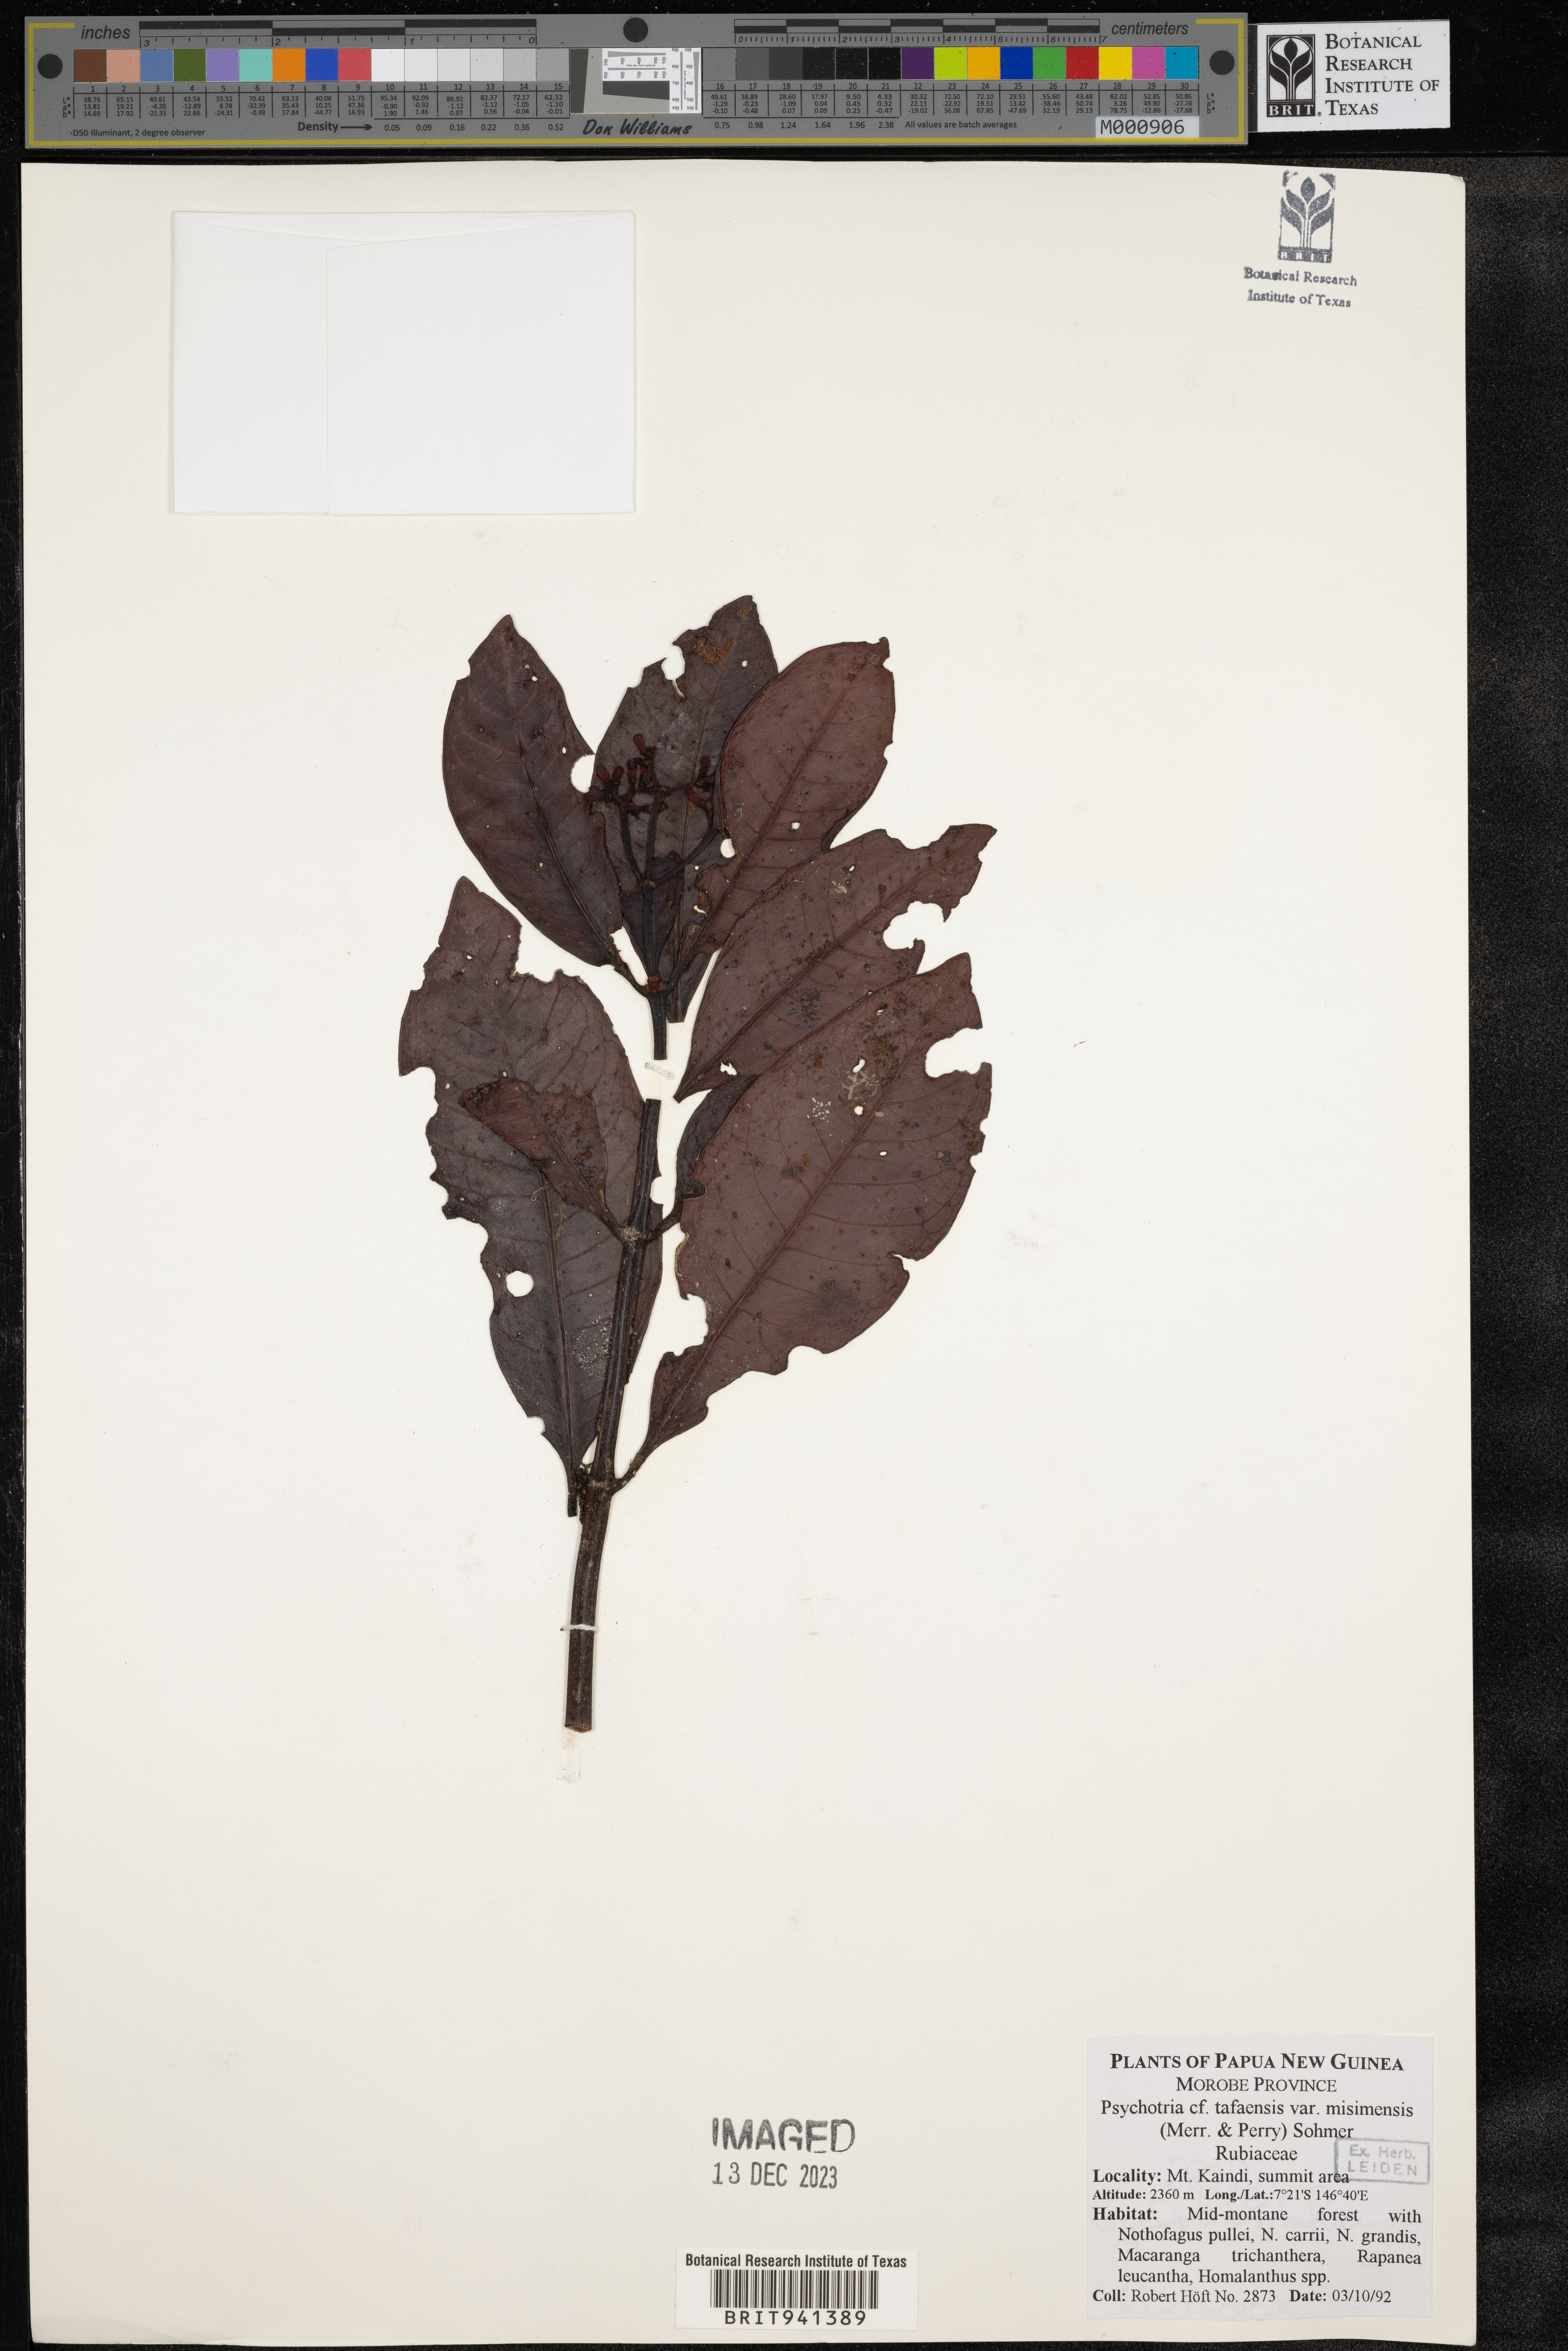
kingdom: Plantae
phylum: Tracheophyta
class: Magnoliopsida
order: Gentianales
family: Rubiaceae
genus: Psychotria
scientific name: Psychotria
